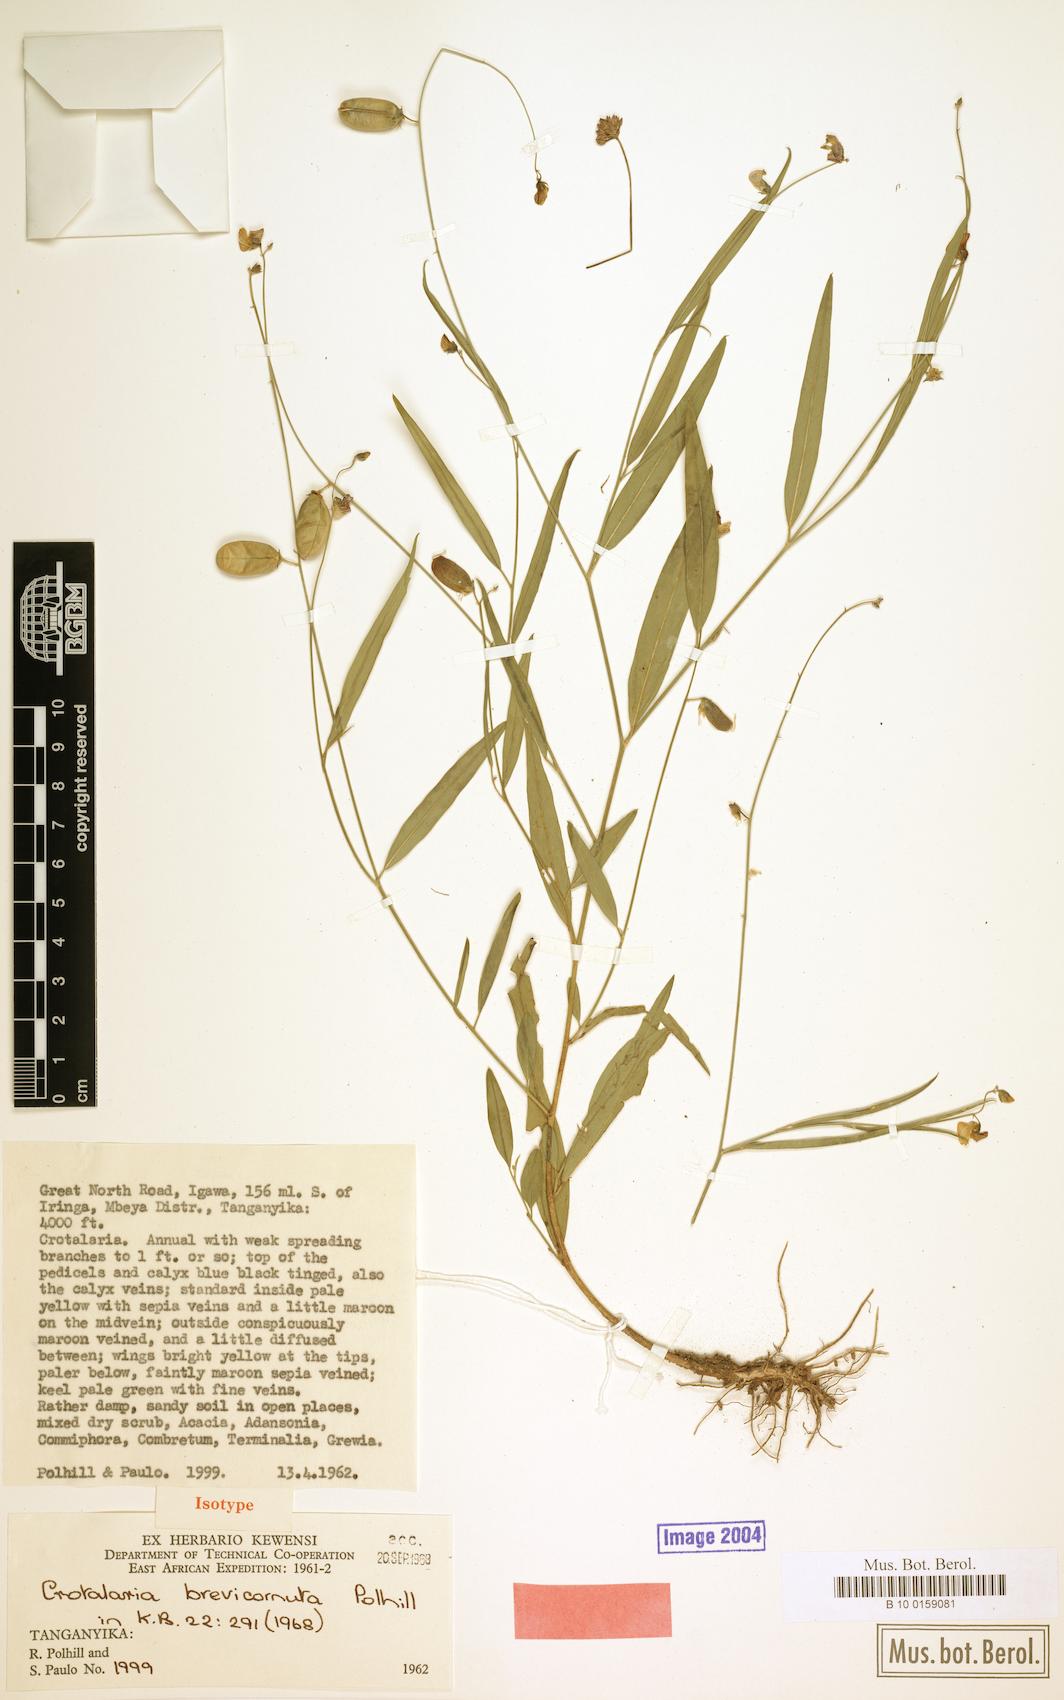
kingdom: Plantae
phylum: Tracheophyta
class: Magnoliopsida
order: Fabales
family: Fabaceae
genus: Crotalaria
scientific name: Crotalaria brevicornuta
